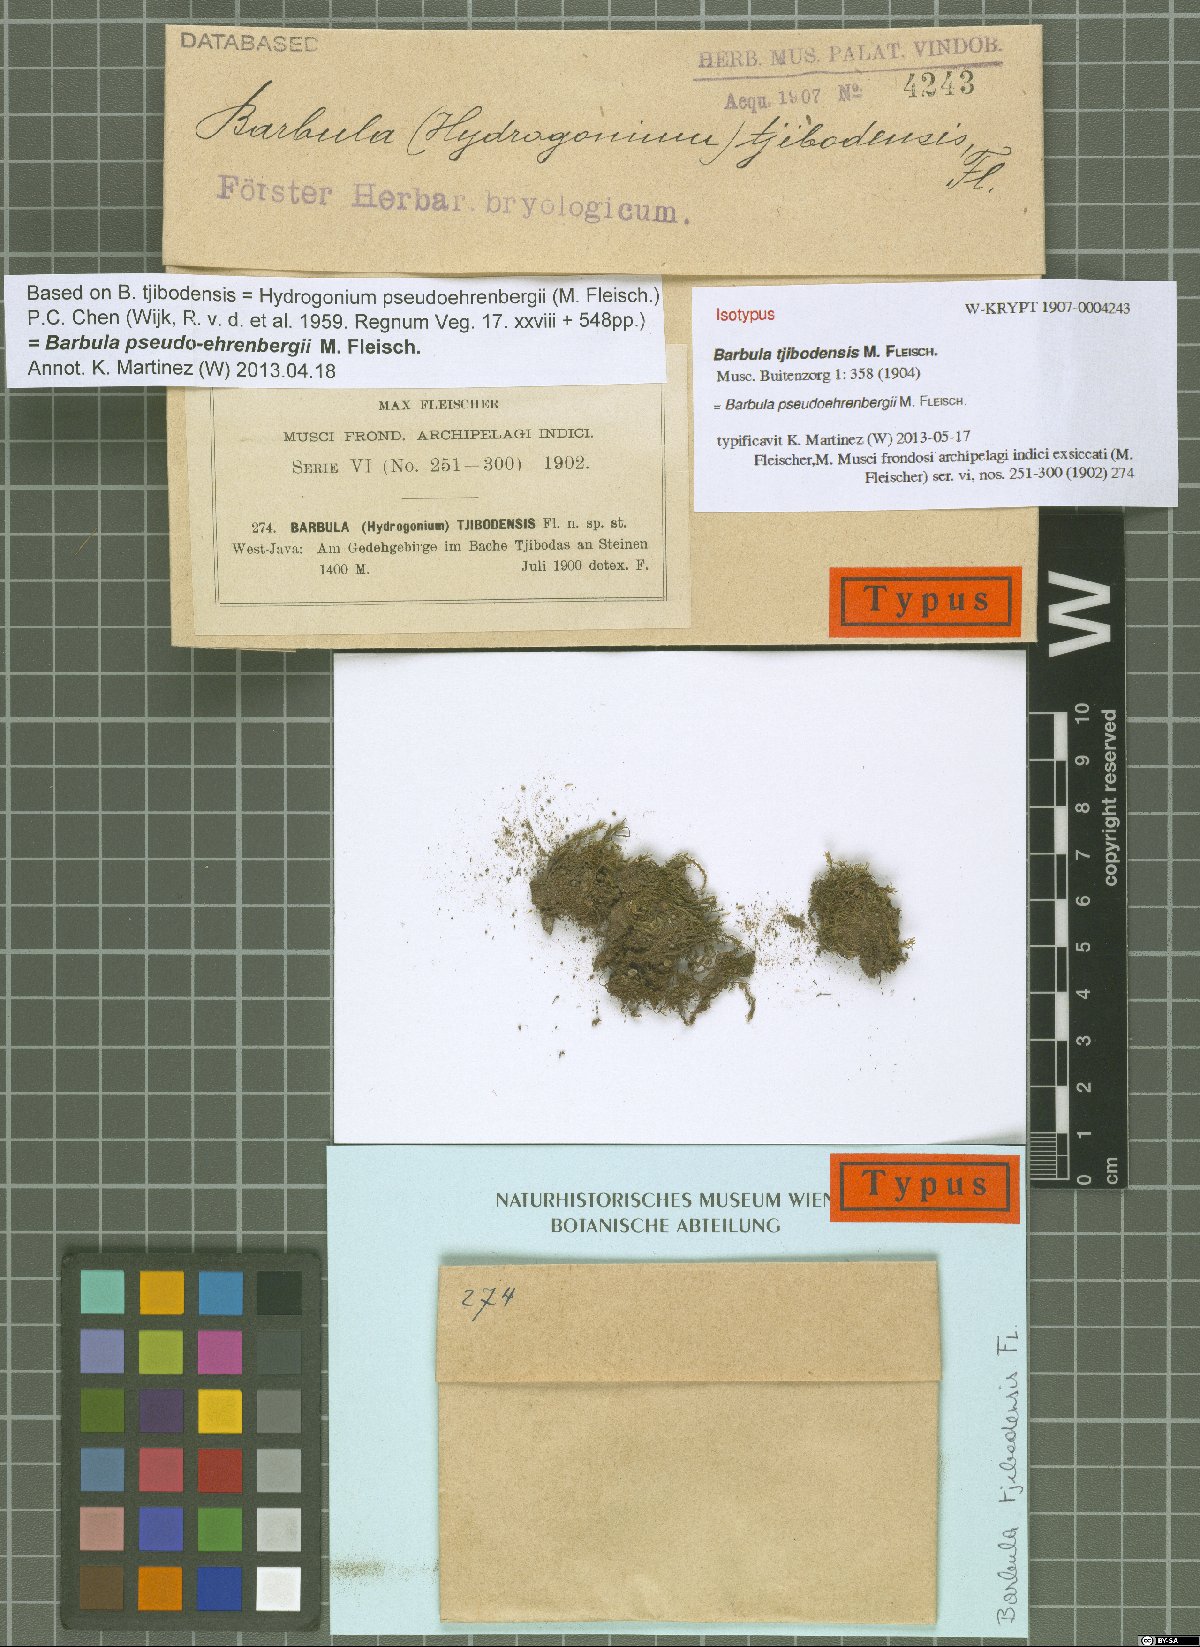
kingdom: Plantae
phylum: Bryophyta
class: Bryopsida
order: Pottiales
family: Pottiaceae
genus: Hydrogonium
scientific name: Hydrogonium pseudoehrenbergii
